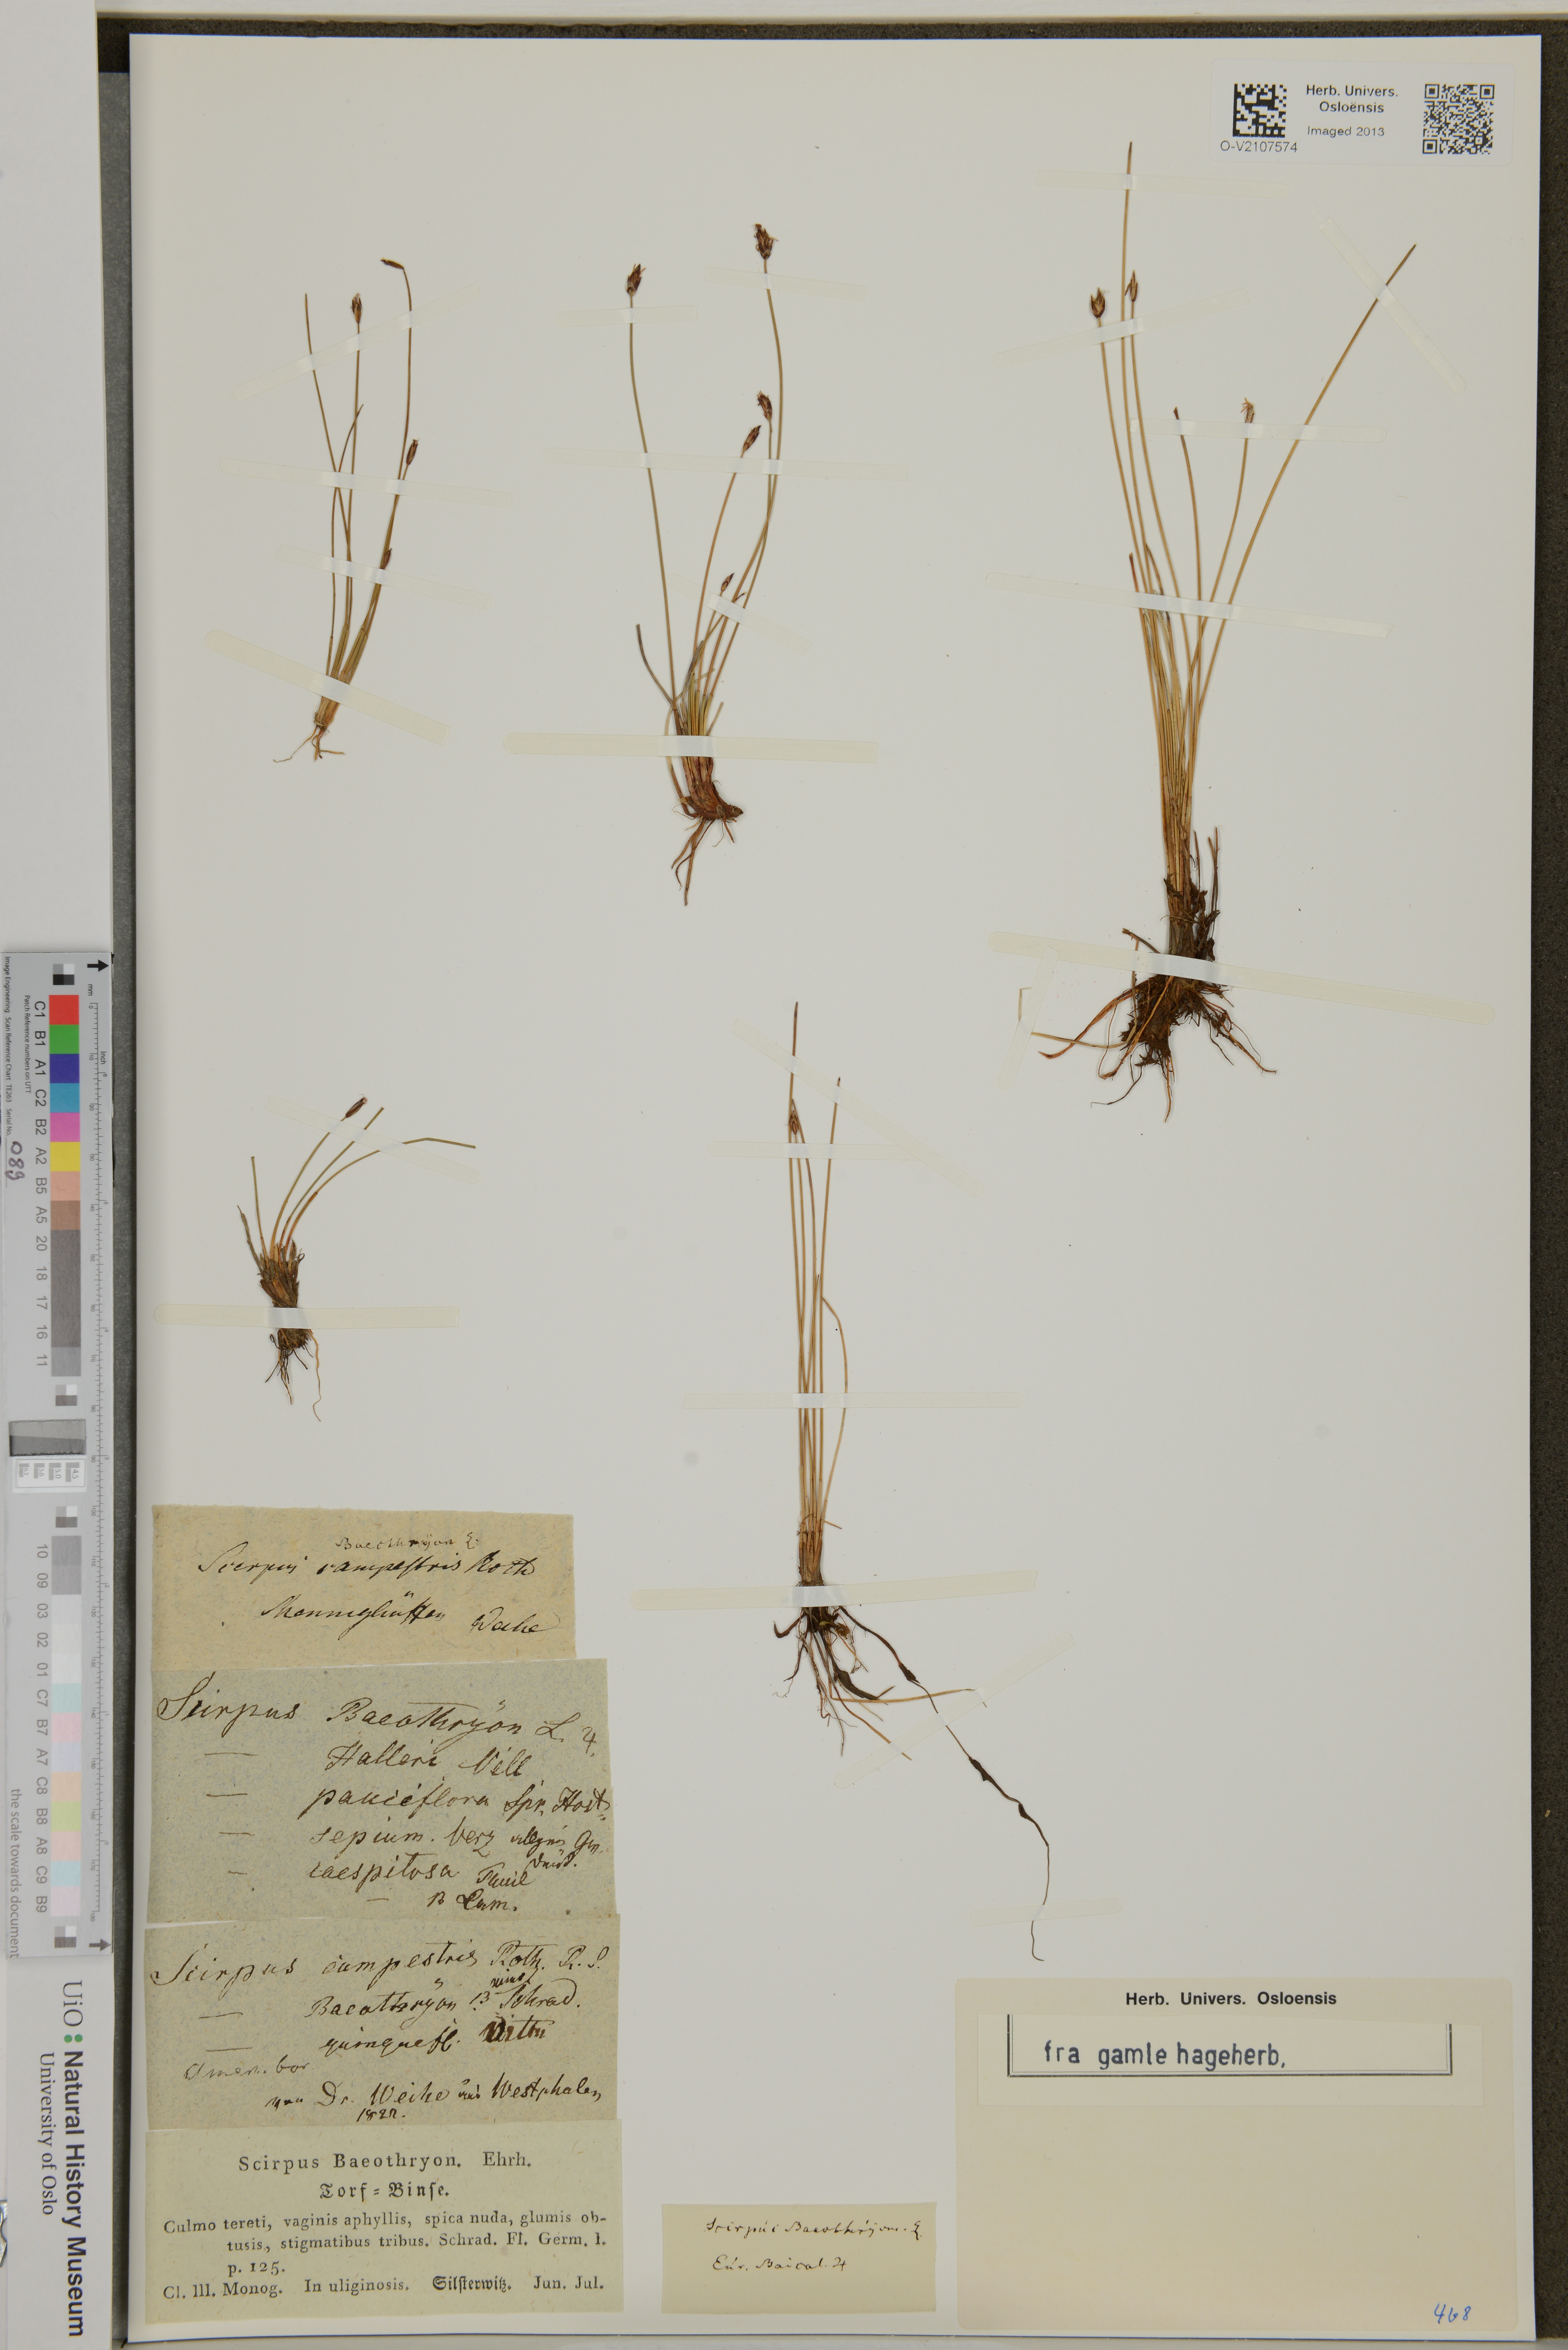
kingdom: Plantae
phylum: Tracheophyta
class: Liliopsida
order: Poales
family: Cyperaceae
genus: Eleocharis
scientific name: Eleocharis quinqueflora
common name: Few-flowered spike-rush
